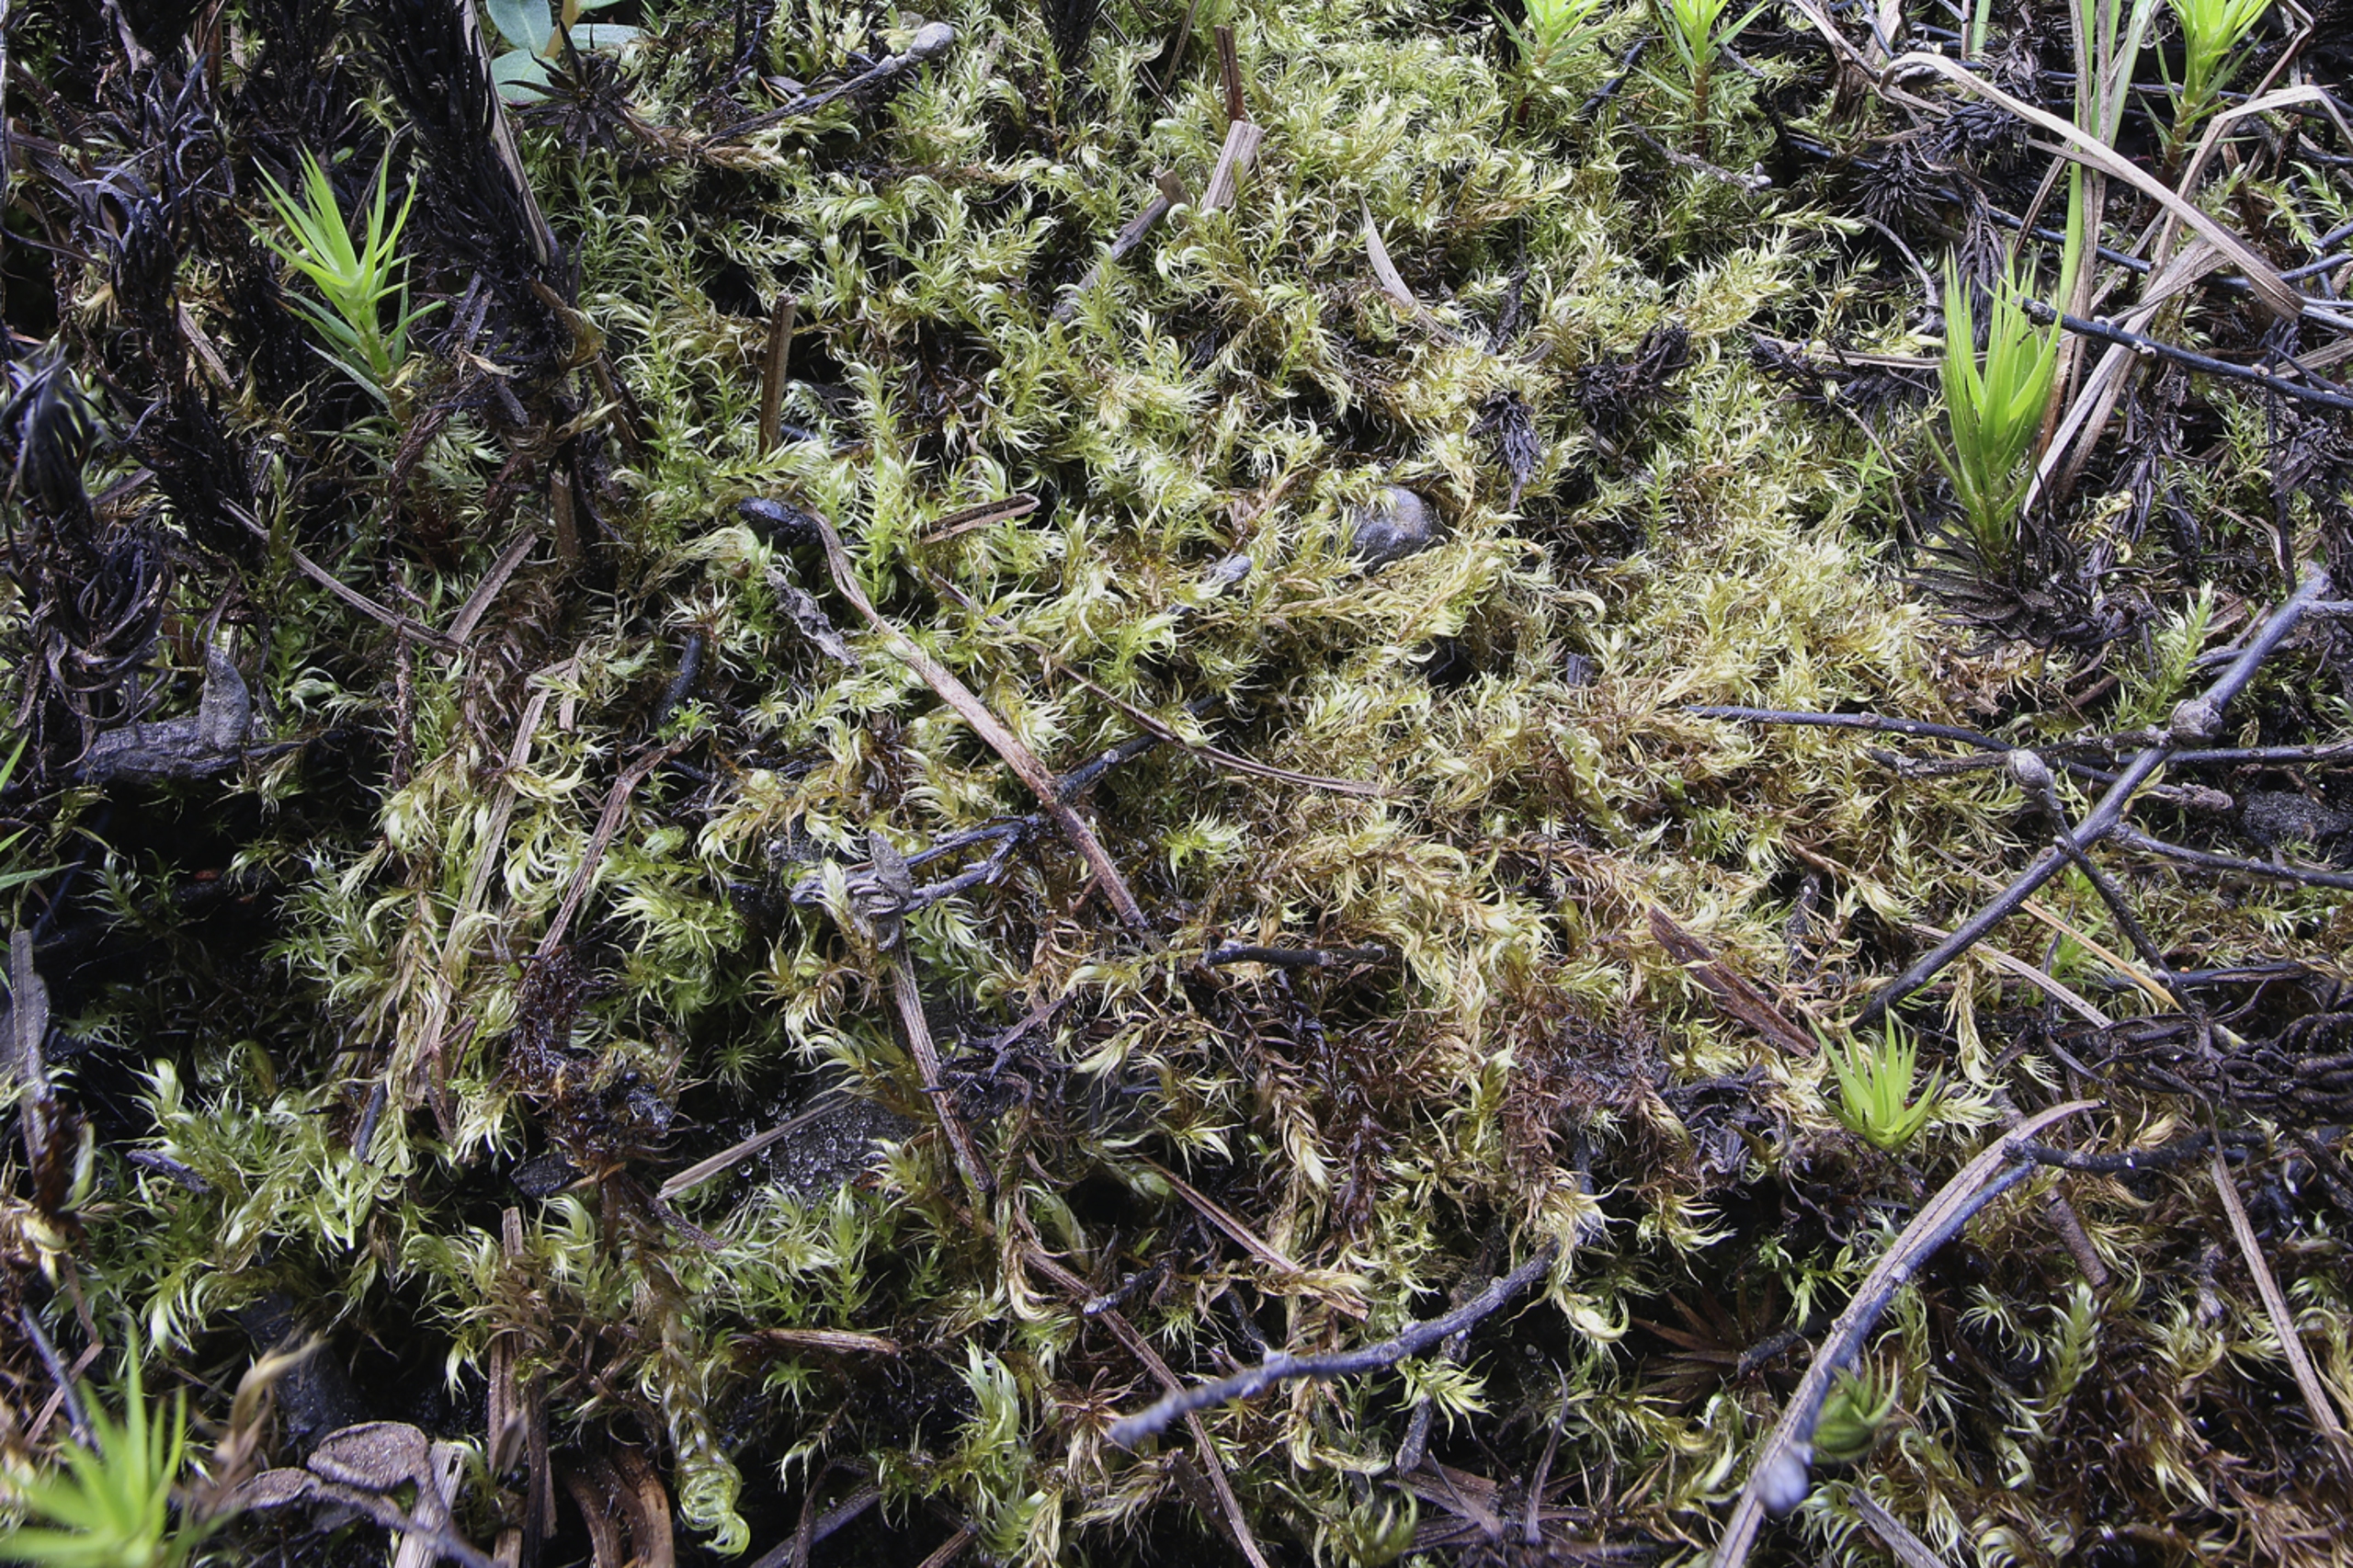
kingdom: Plantae
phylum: Bryophyta
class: Bryopsida
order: Hypnales
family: Calliergonaceae
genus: Warnstorfia
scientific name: Warnstorfia fluitans
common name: Vand-bueblad
